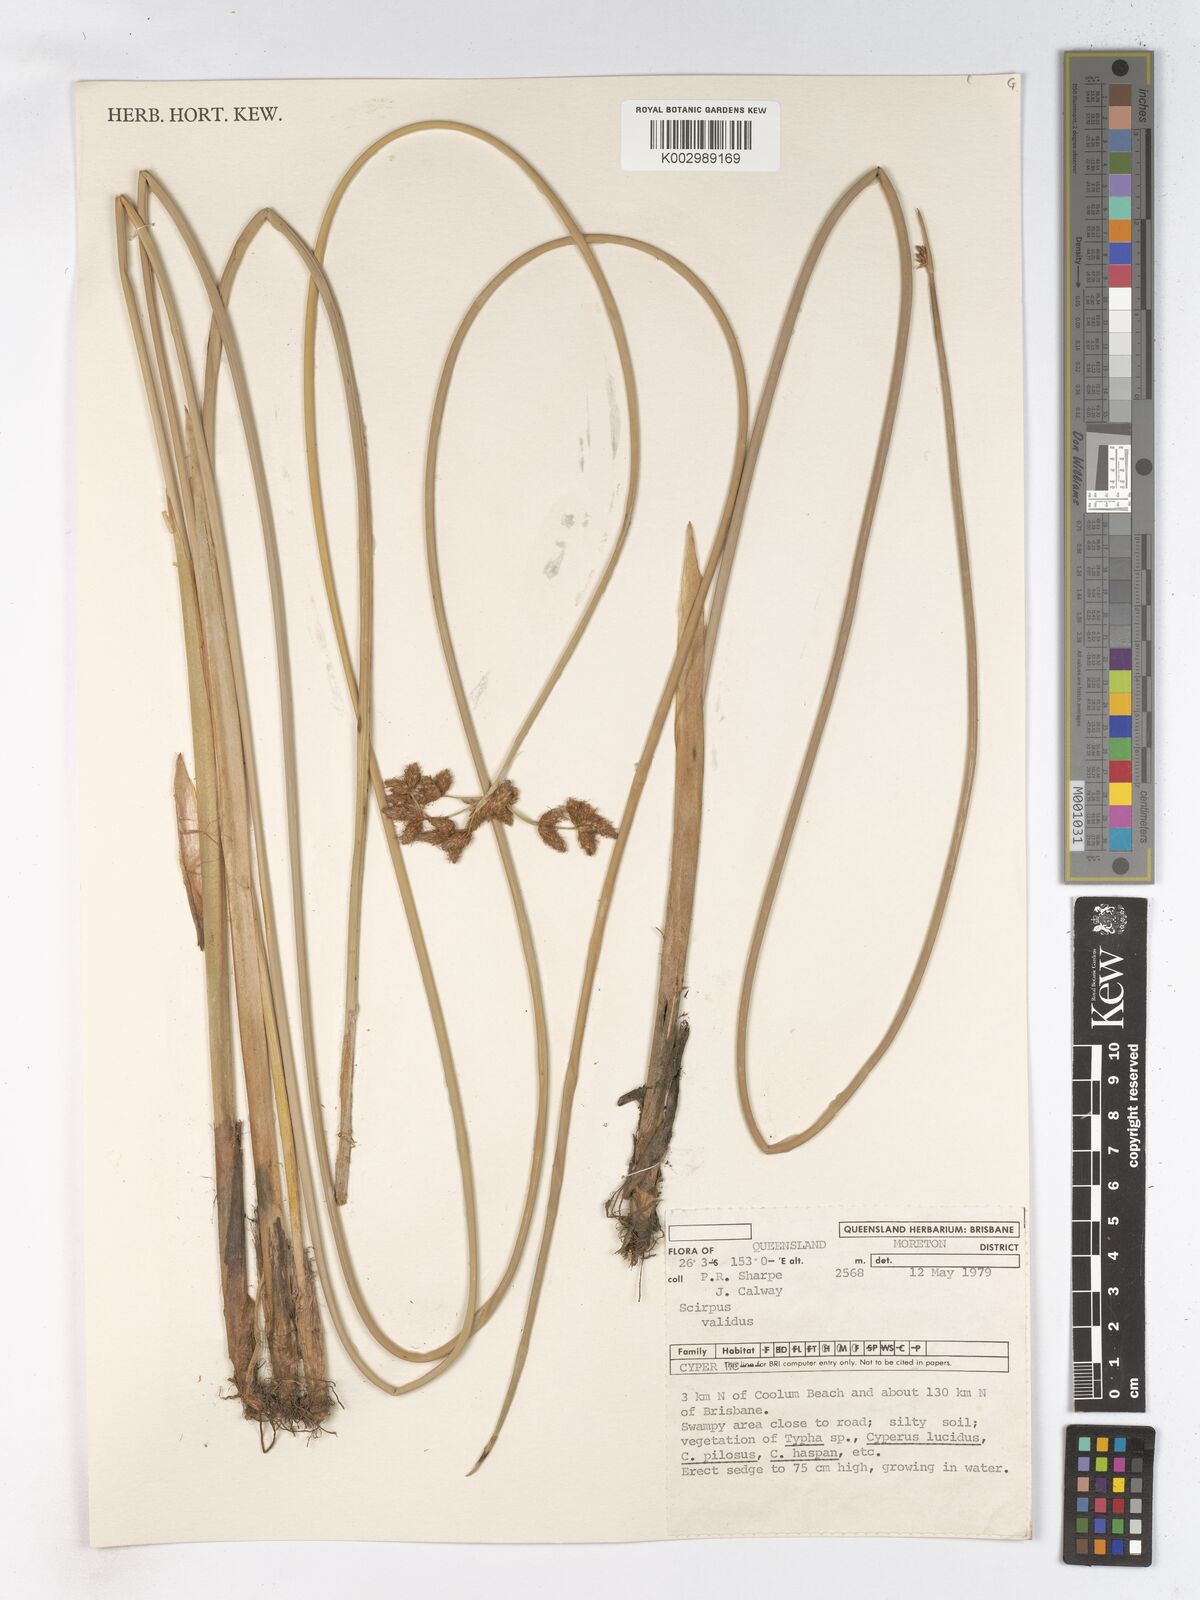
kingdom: Plantae
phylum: Tracheophyta
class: Liliopsida
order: Poales
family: Cyperaceae
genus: Schoenoplectus
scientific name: Schoenoplectus lacustris
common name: Common club-rush
